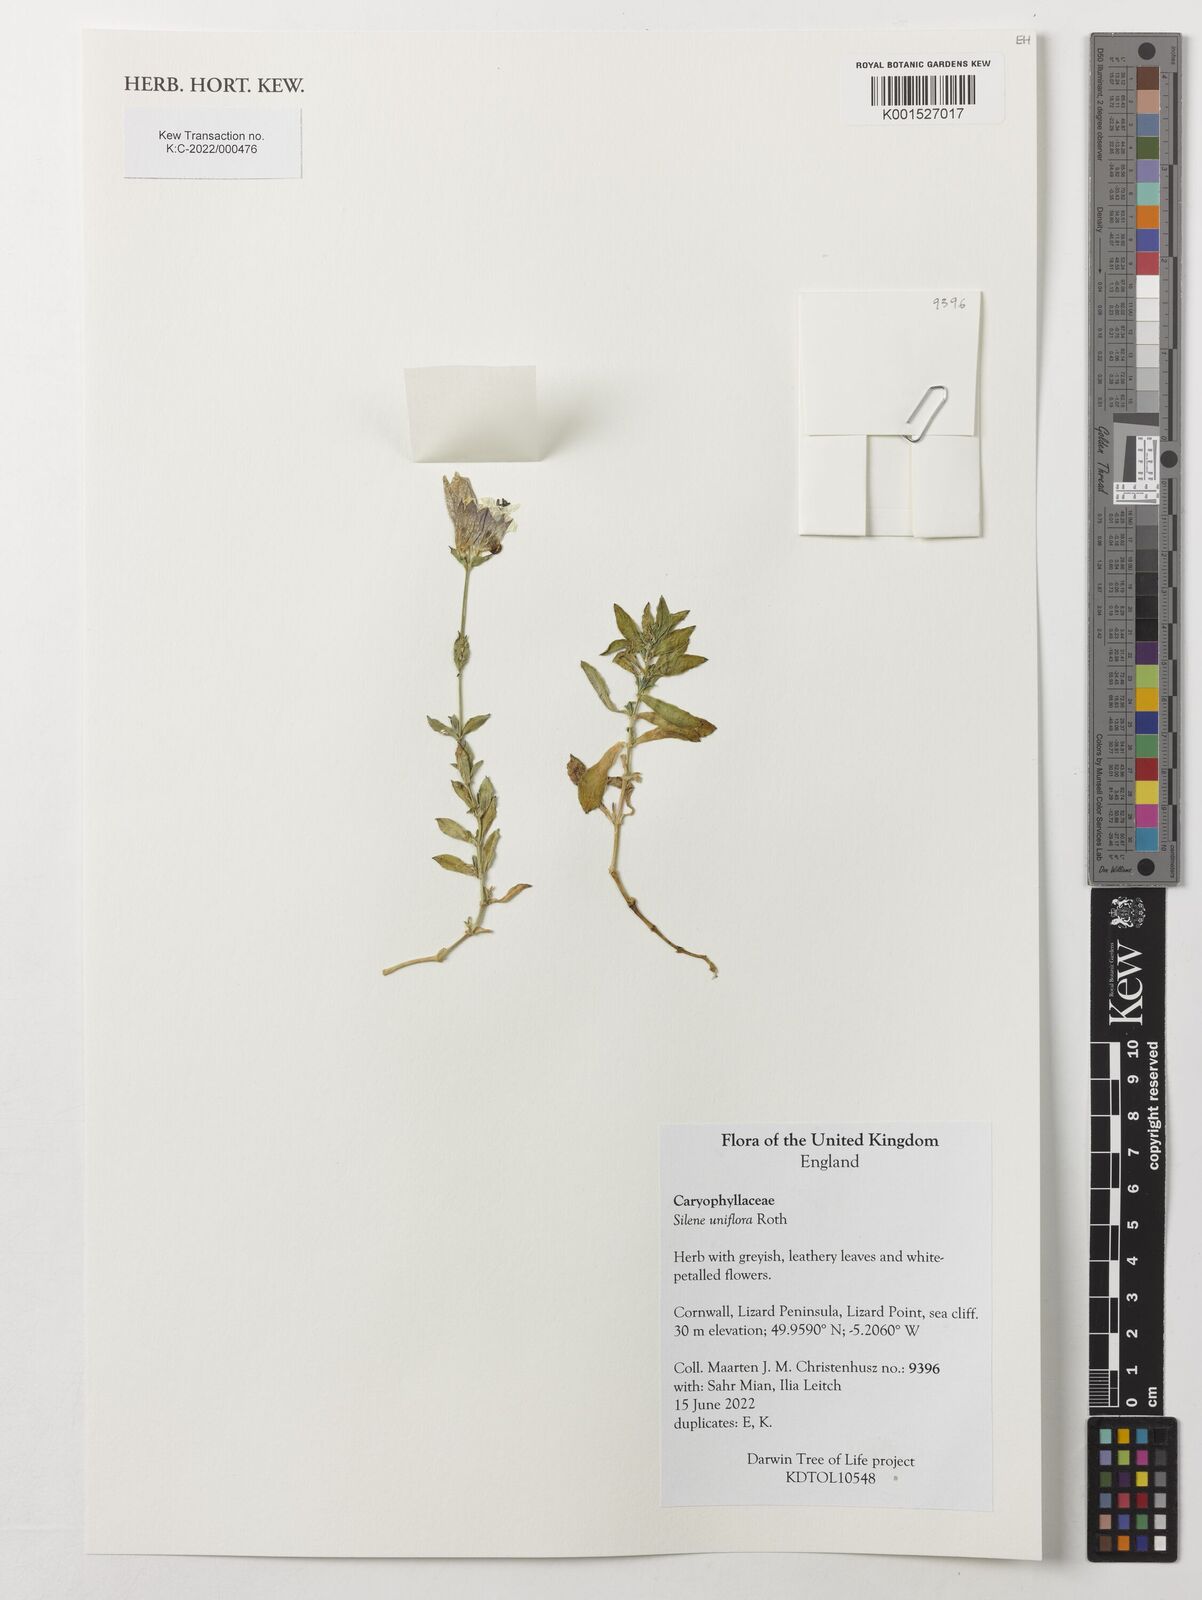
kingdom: Plantae
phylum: Tracheophyta
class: Magnoliopsida
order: Caryophyllales
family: Caryophyllaceae
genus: Silene
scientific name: Silene uniflora
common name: Sea campion
